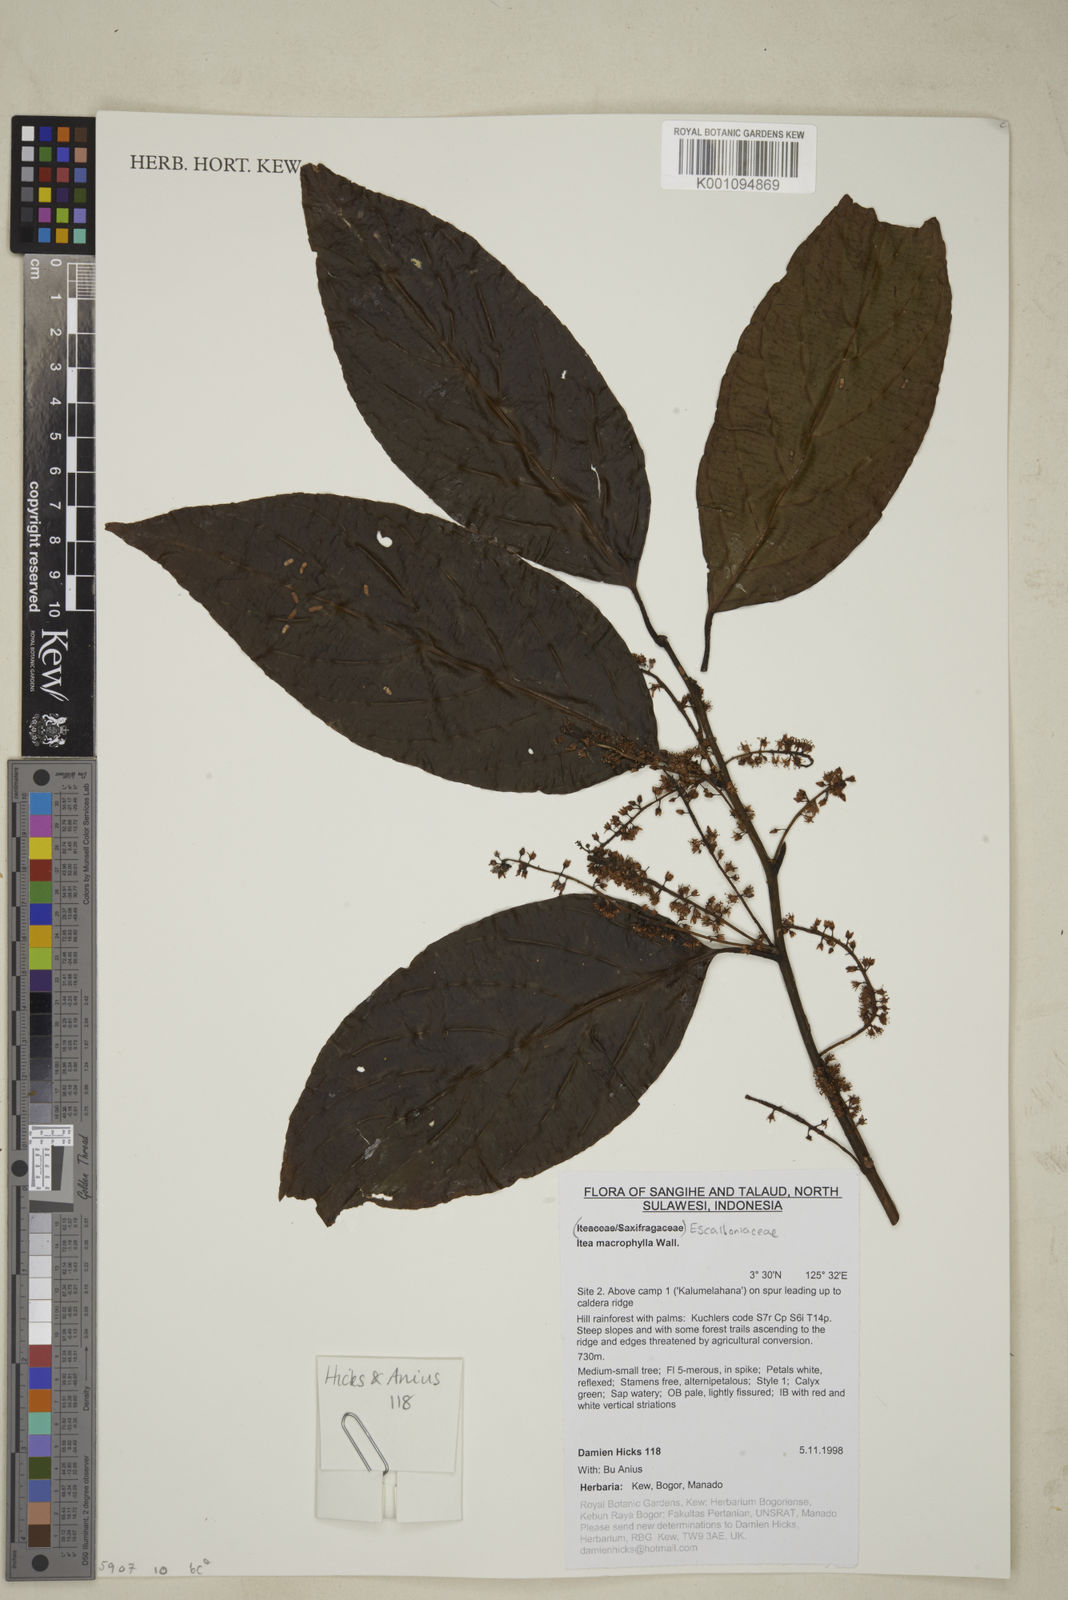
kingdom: Plantae
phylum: Tracheophyta
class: Magnoliopsida
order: Saxifragales
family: Iteaceae
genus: Itea
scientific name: Itea macrophylla
